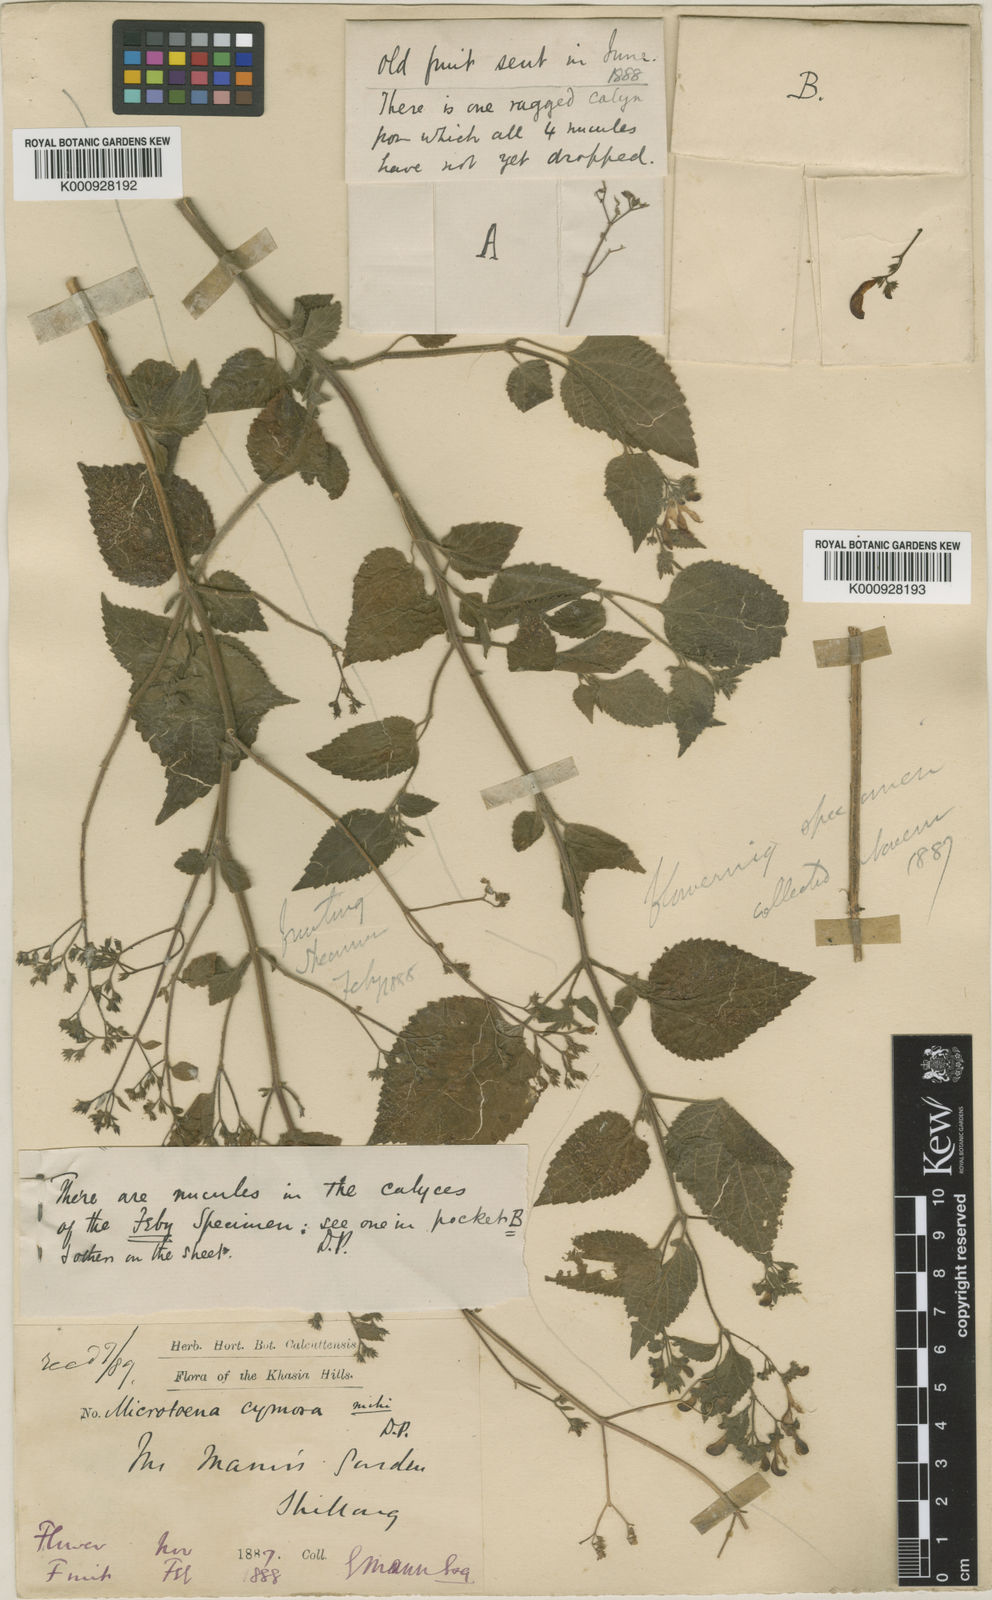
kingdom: Plantae
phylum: Tracheophyta
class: Magnoliopsida
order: Lamiales
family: Lamiaceae
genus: Microtoena
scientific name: Microtoena patchoulii
